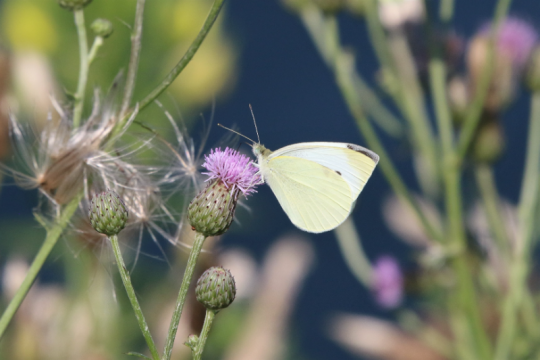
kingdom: Animalia
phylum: Arthropoda
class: Insecta
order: Lepidoptera
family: Pieridae
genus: Pieris
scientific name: Pieris rapae
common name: Cabbage White
